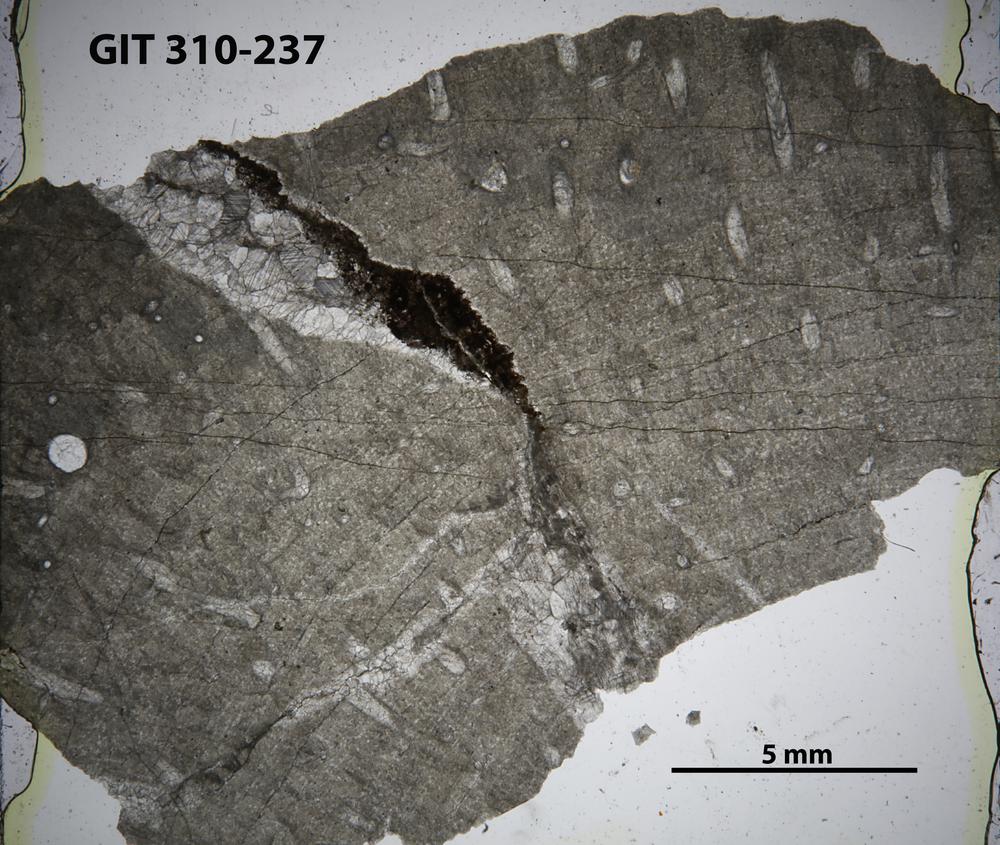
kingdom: Animalia
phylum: Cnidaria
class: Anthozoa
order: Heliolitina
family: Heliolitidae
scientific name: Heliolitidae
